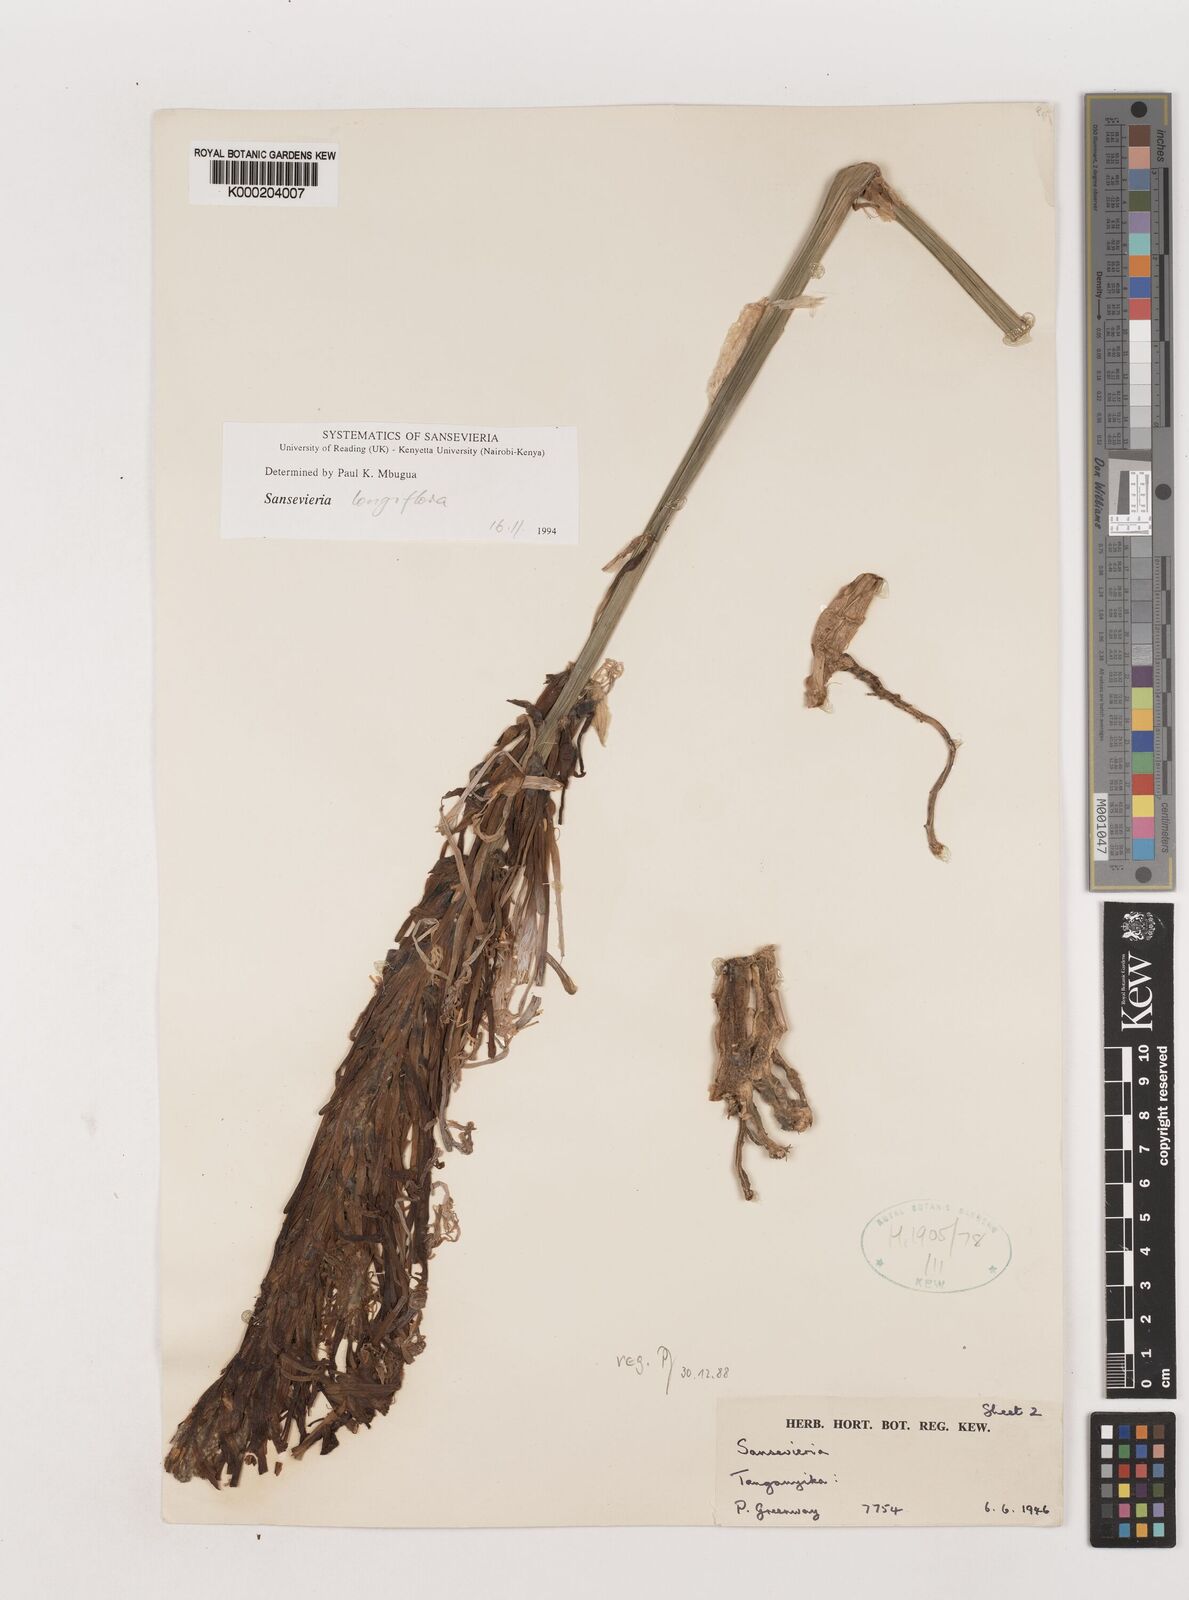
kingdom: Plantae
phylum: Tracheophyta
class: Liliopsida
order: Asparagales
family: Asparagaceae
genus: Dracaena
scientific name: Dracaena
